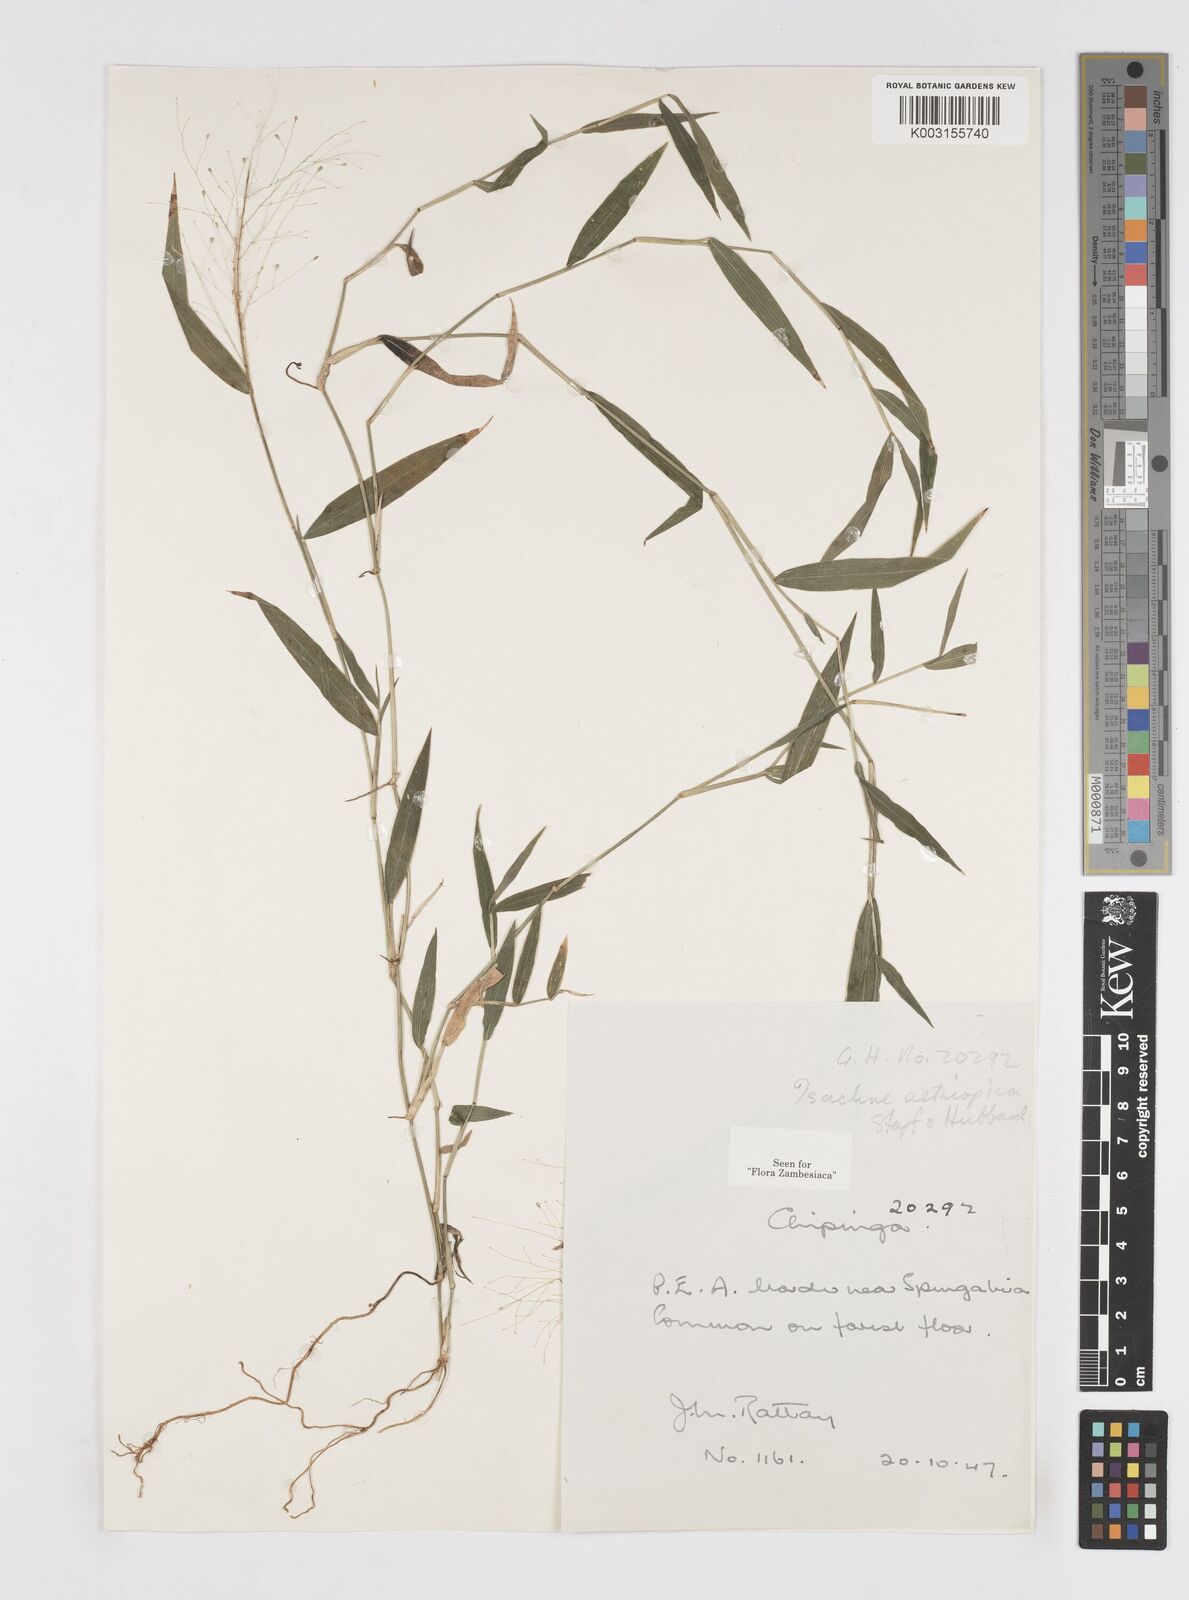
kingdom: Plantae
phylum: Tracheophyta
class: Liliopsida
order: Poales
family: Poaceae
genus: Isachne
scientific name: Isachne mauritiana
